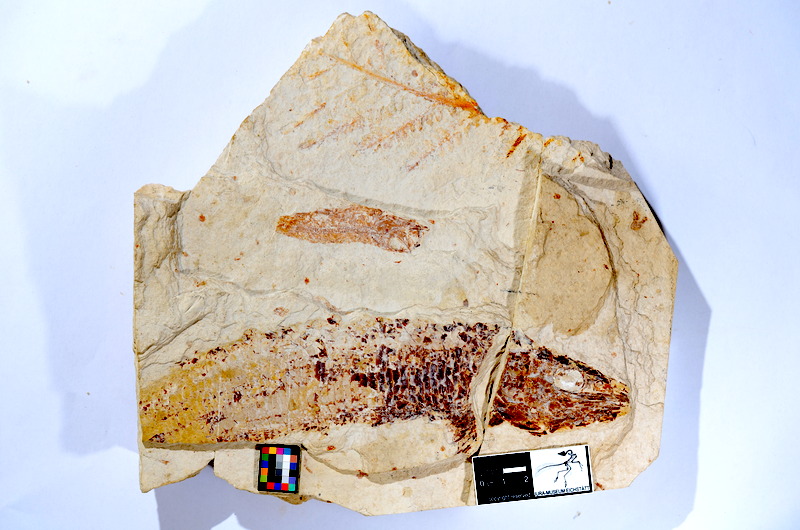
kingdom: Animalia
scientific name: Animalia
